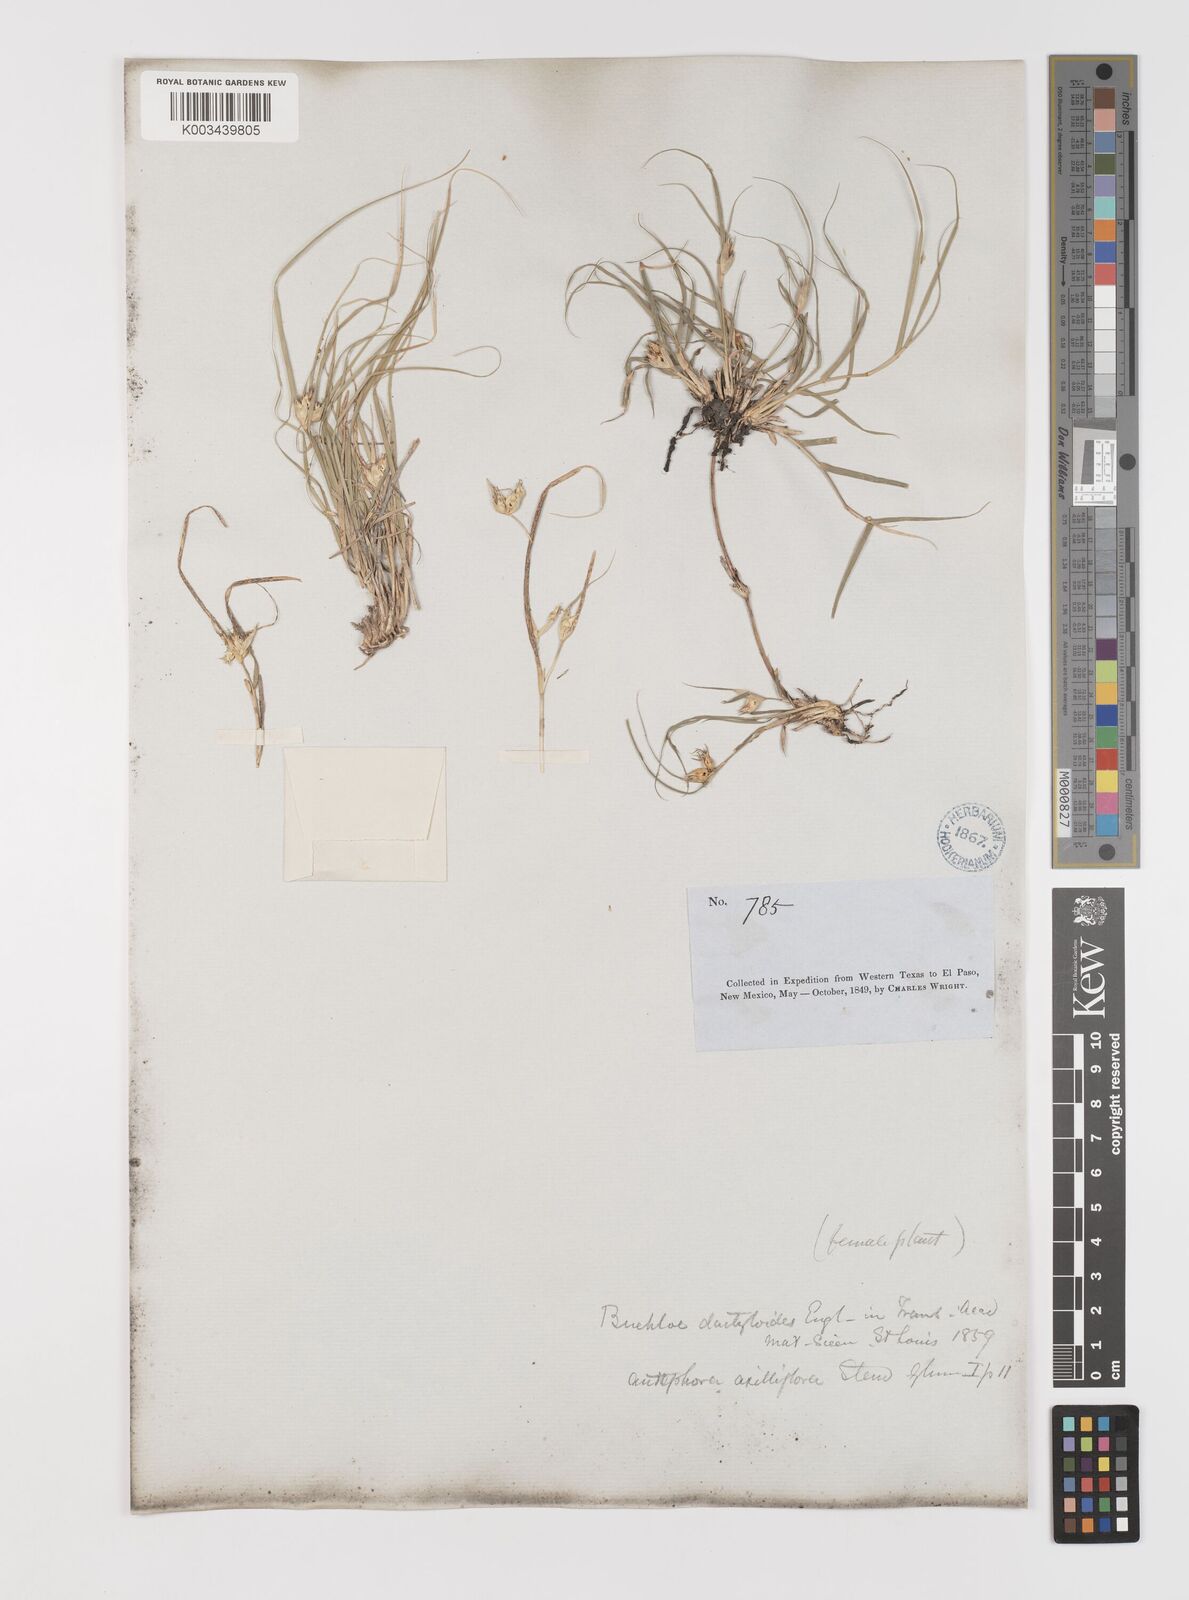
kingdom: Plantae
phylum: Tracheophyta
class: Liliopsida
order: Poales
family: Poaceae
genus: Bouteloua
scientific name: Bouteloua dactyloides
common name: Buffalo grass
